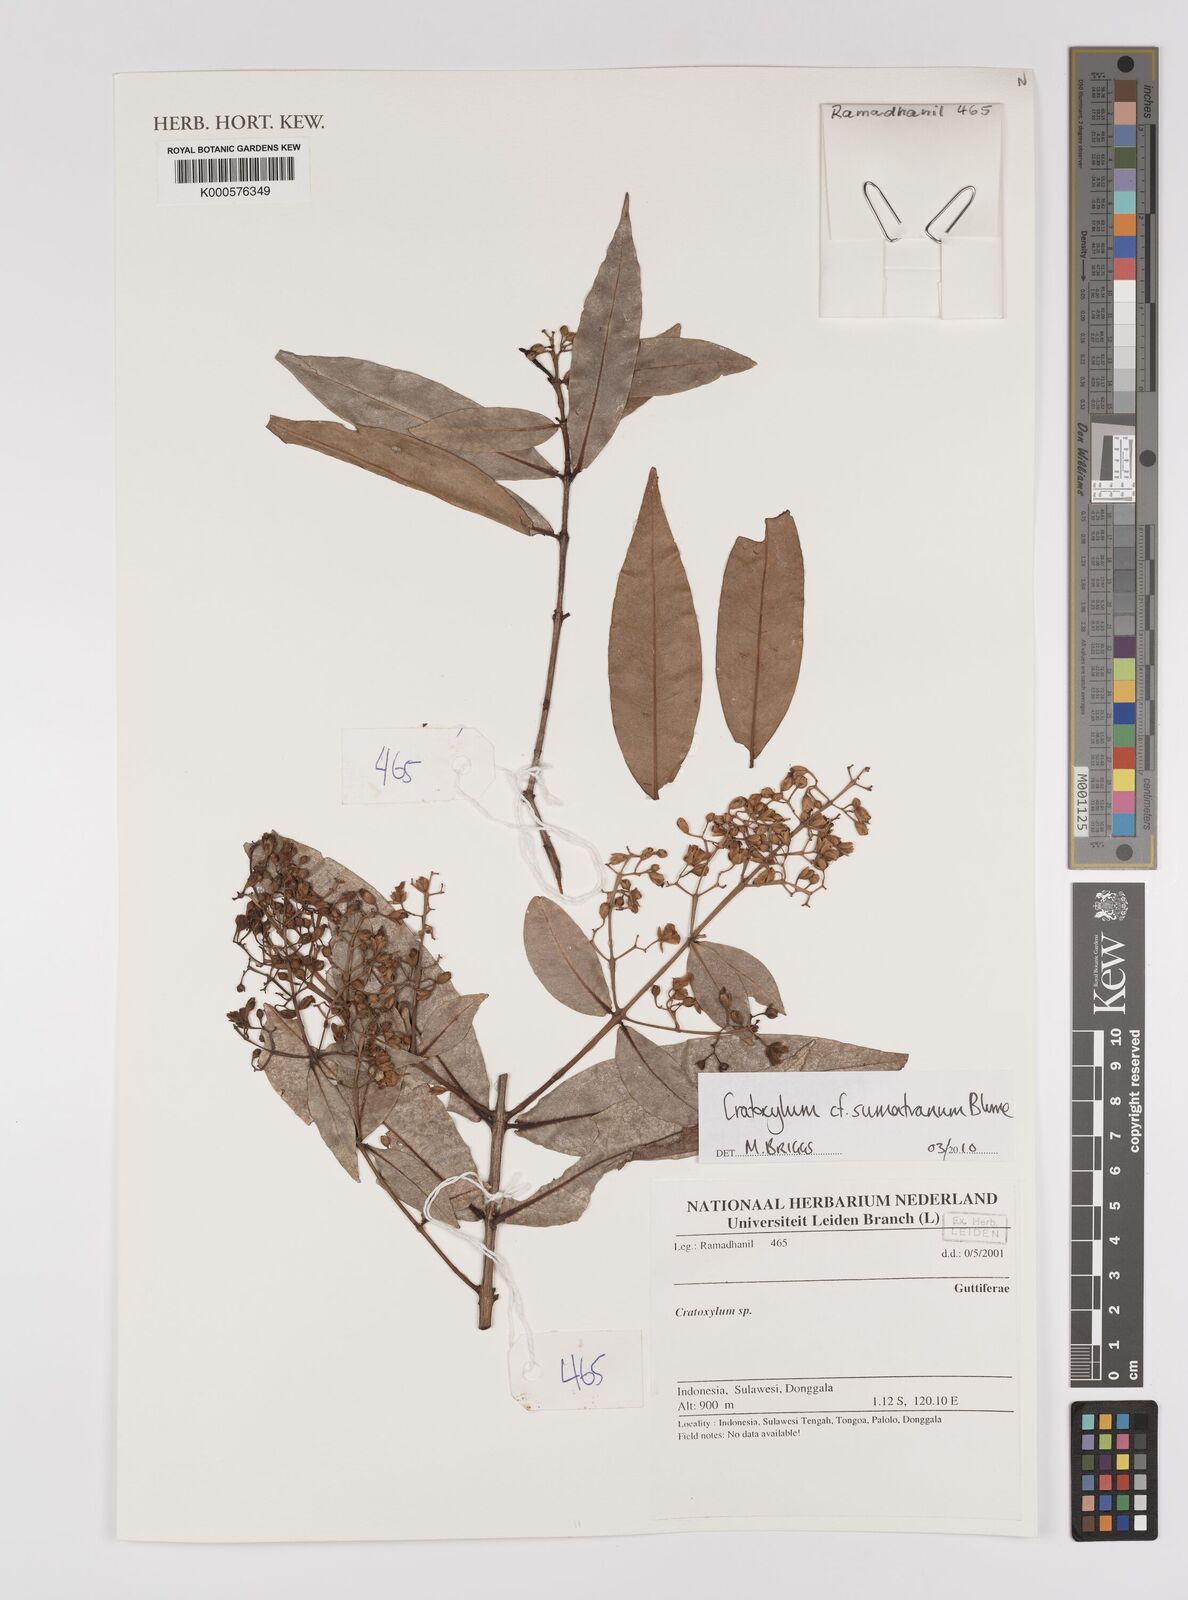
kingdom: Plantae
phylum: Tracheophyta
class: Magnoliopsida
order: Malpighiales
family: Hypericaceae
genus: Cratoxylum
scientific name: Cratoxylum sumatranum
